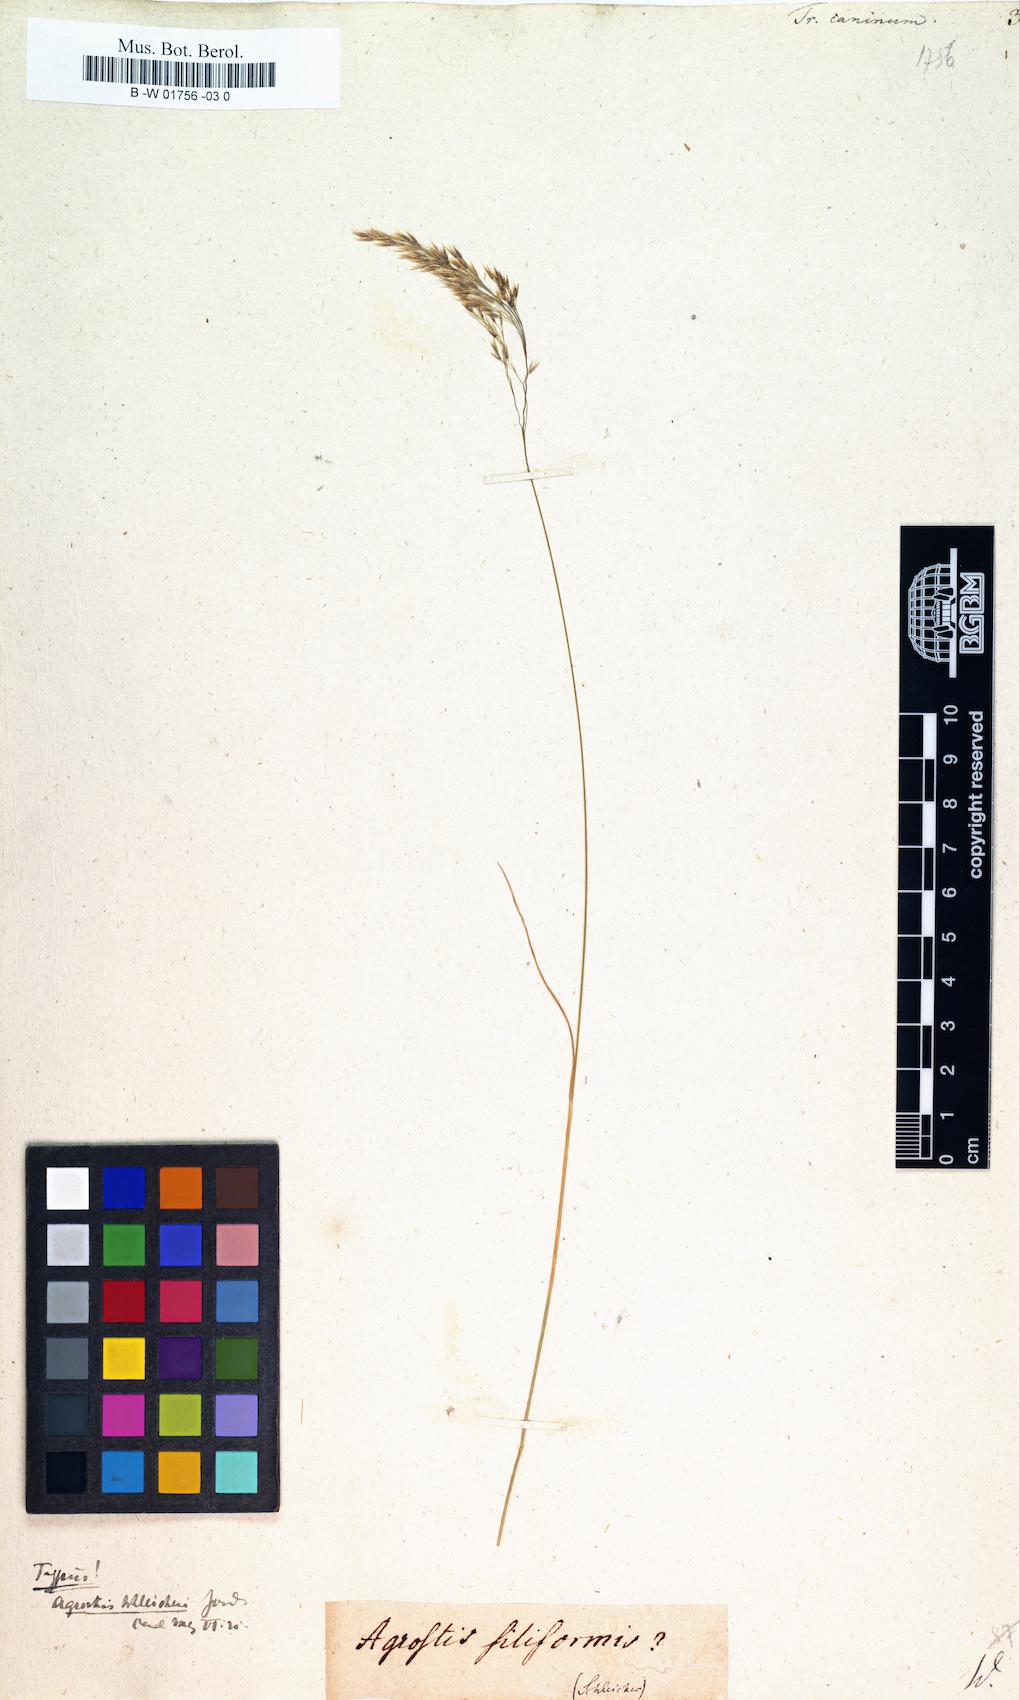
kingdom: Plantae
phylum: Tracheophyta
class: Liliopsida
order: Poales
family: Poaceae
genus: Agrostis
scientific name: Agrostis canina
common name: Velvet bent
